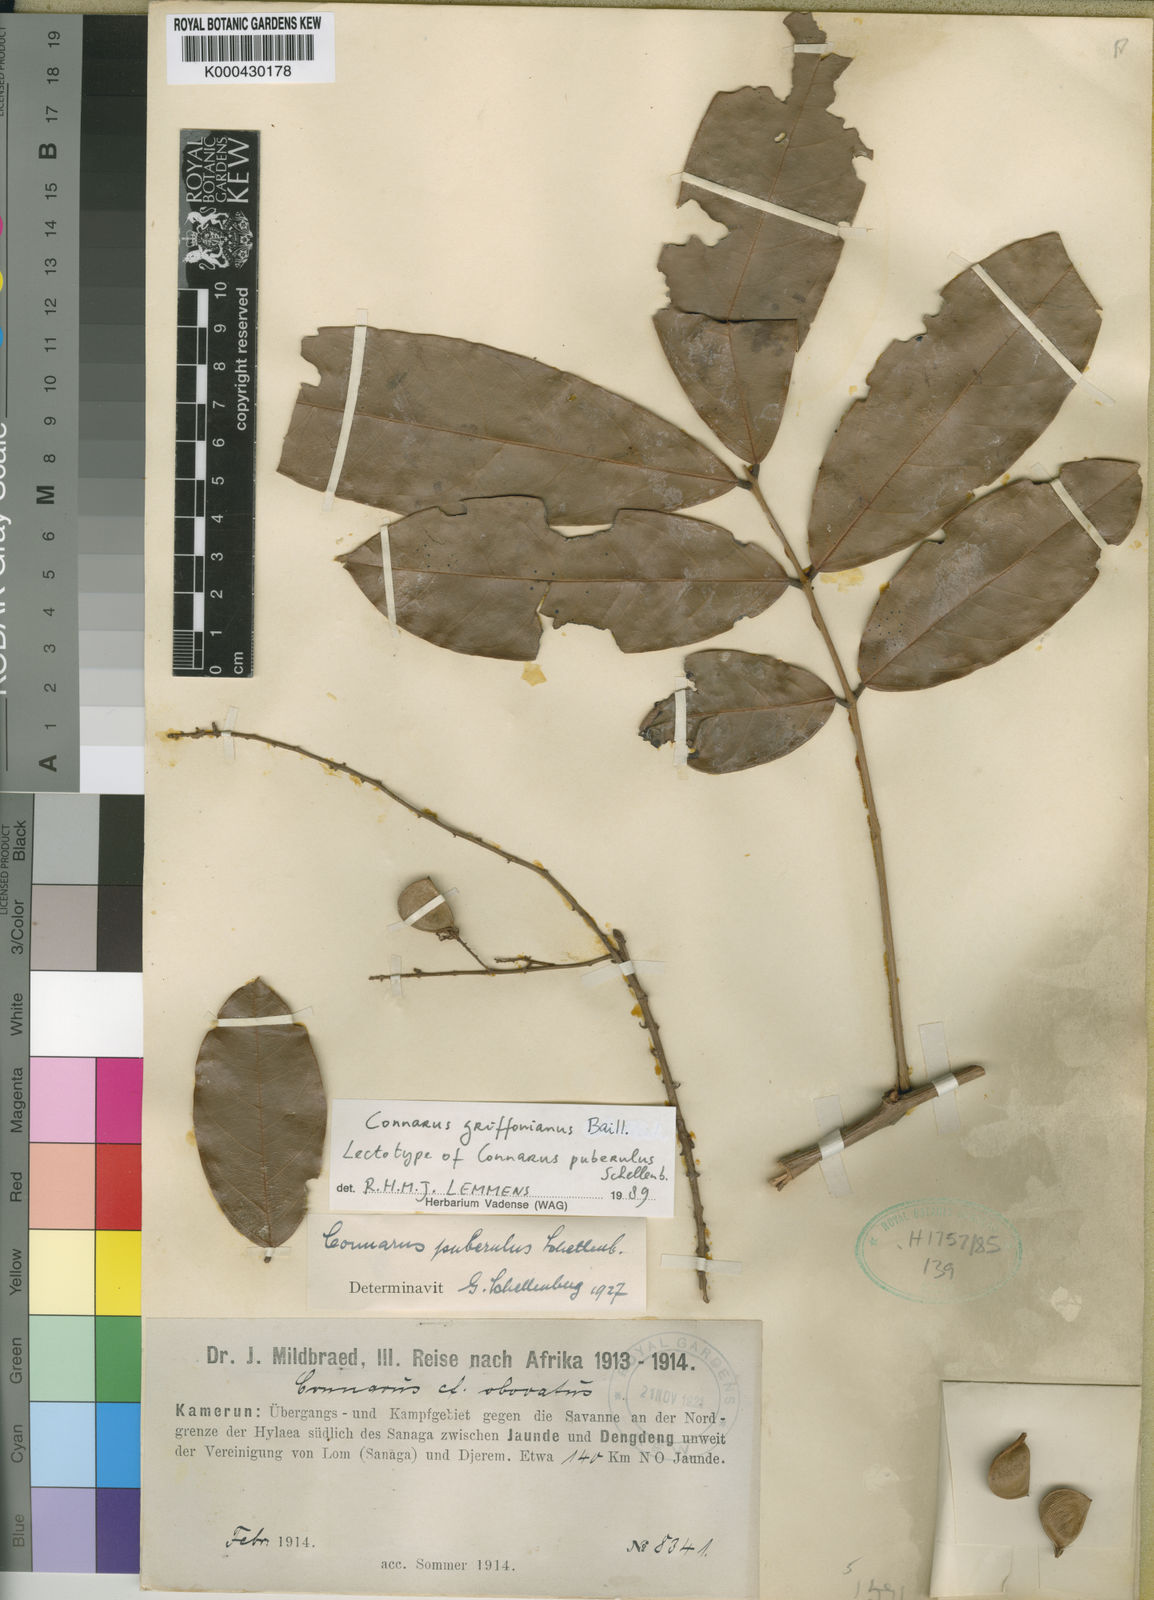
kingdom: Plantae
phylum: Tracheophyta
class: Magnoliopsida
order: Oxalidales
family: Connaraceae
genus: Connarus
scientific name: Connarus griffonianus
